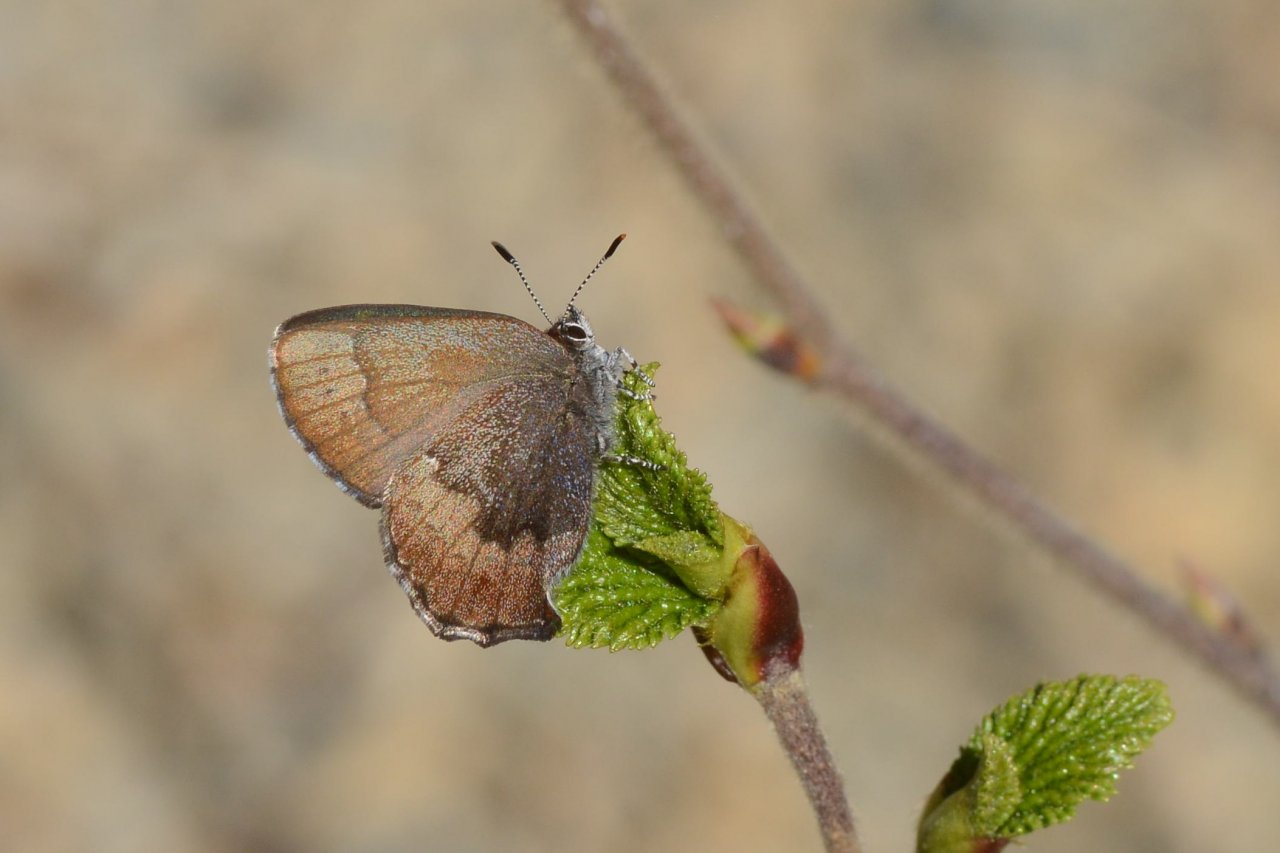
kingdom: Animalia
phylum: Arthropoda
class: Insecta
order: Lepidoptera
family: Lycaenidae
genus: Incisalia
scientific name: Incisalia irioides
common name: Brown Elfin
